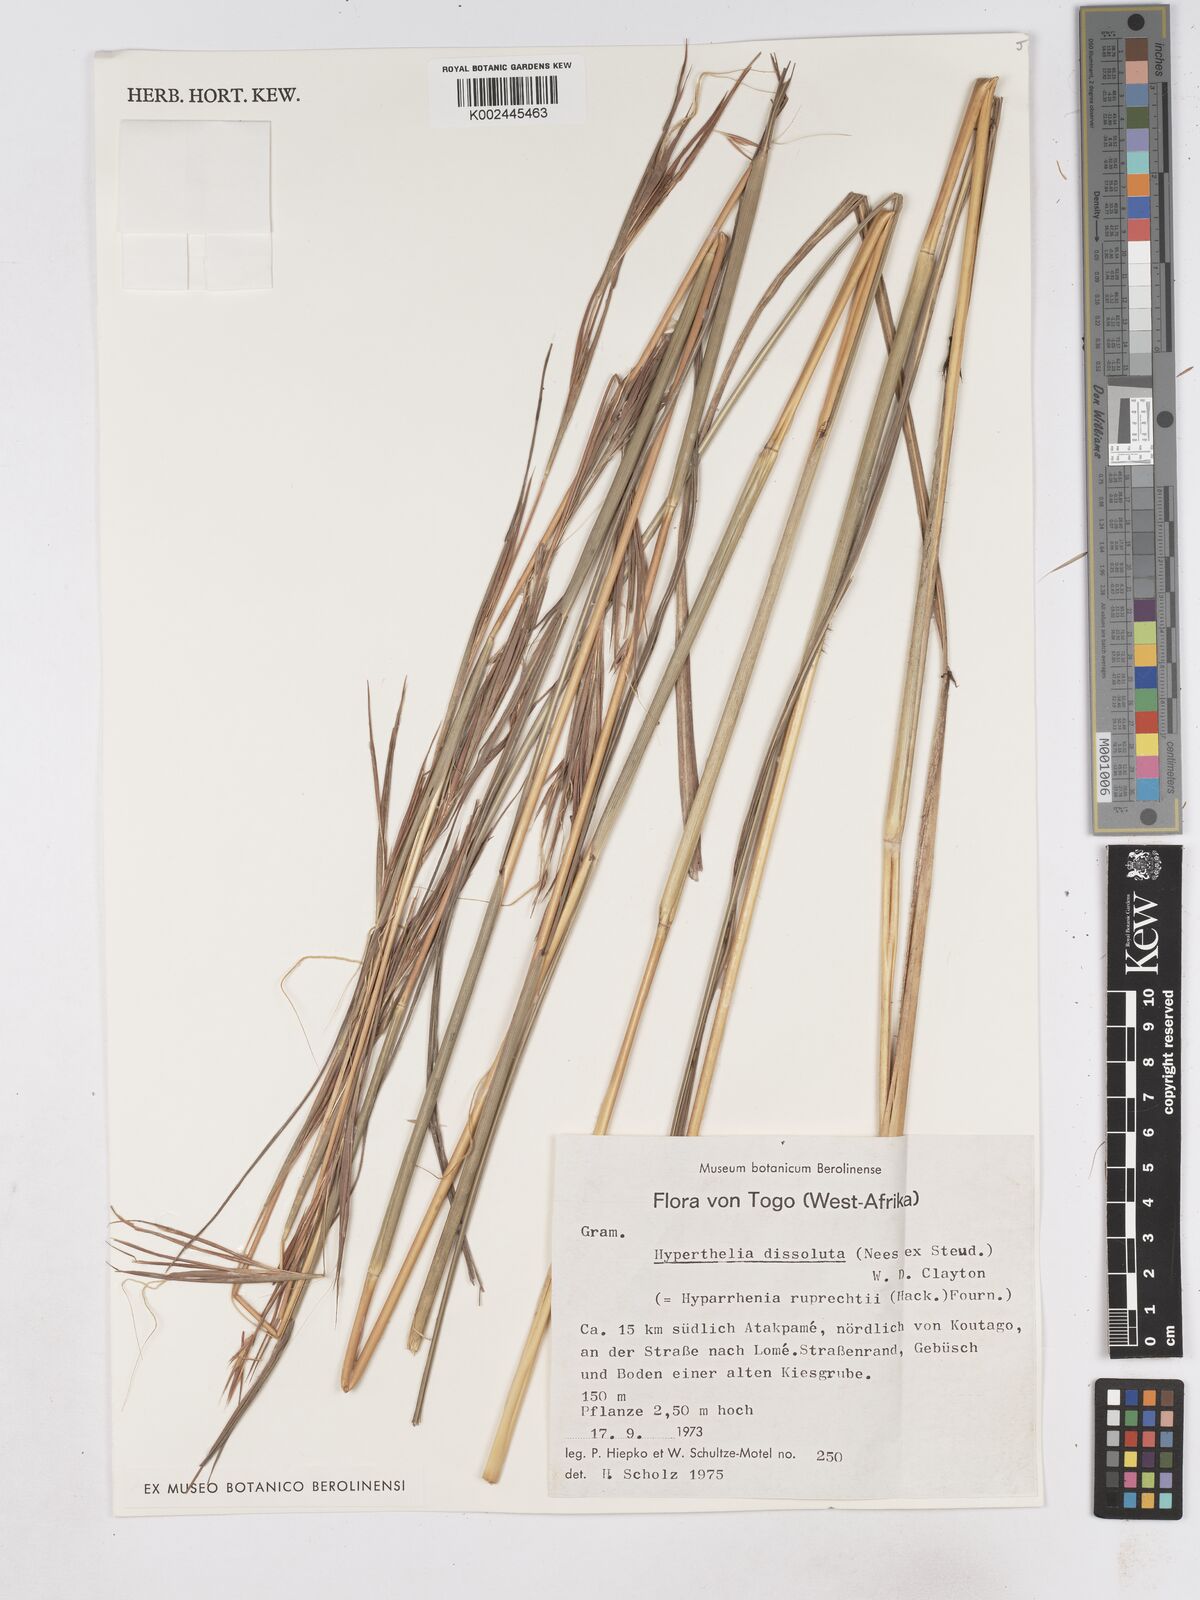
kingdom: Plantae
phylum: Tracheophyta
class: Liliopsida
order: Poales
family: Poaceae
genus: Hyperthelia
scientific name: Hyperthelia dissoluta
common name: Yellow thatching grass
